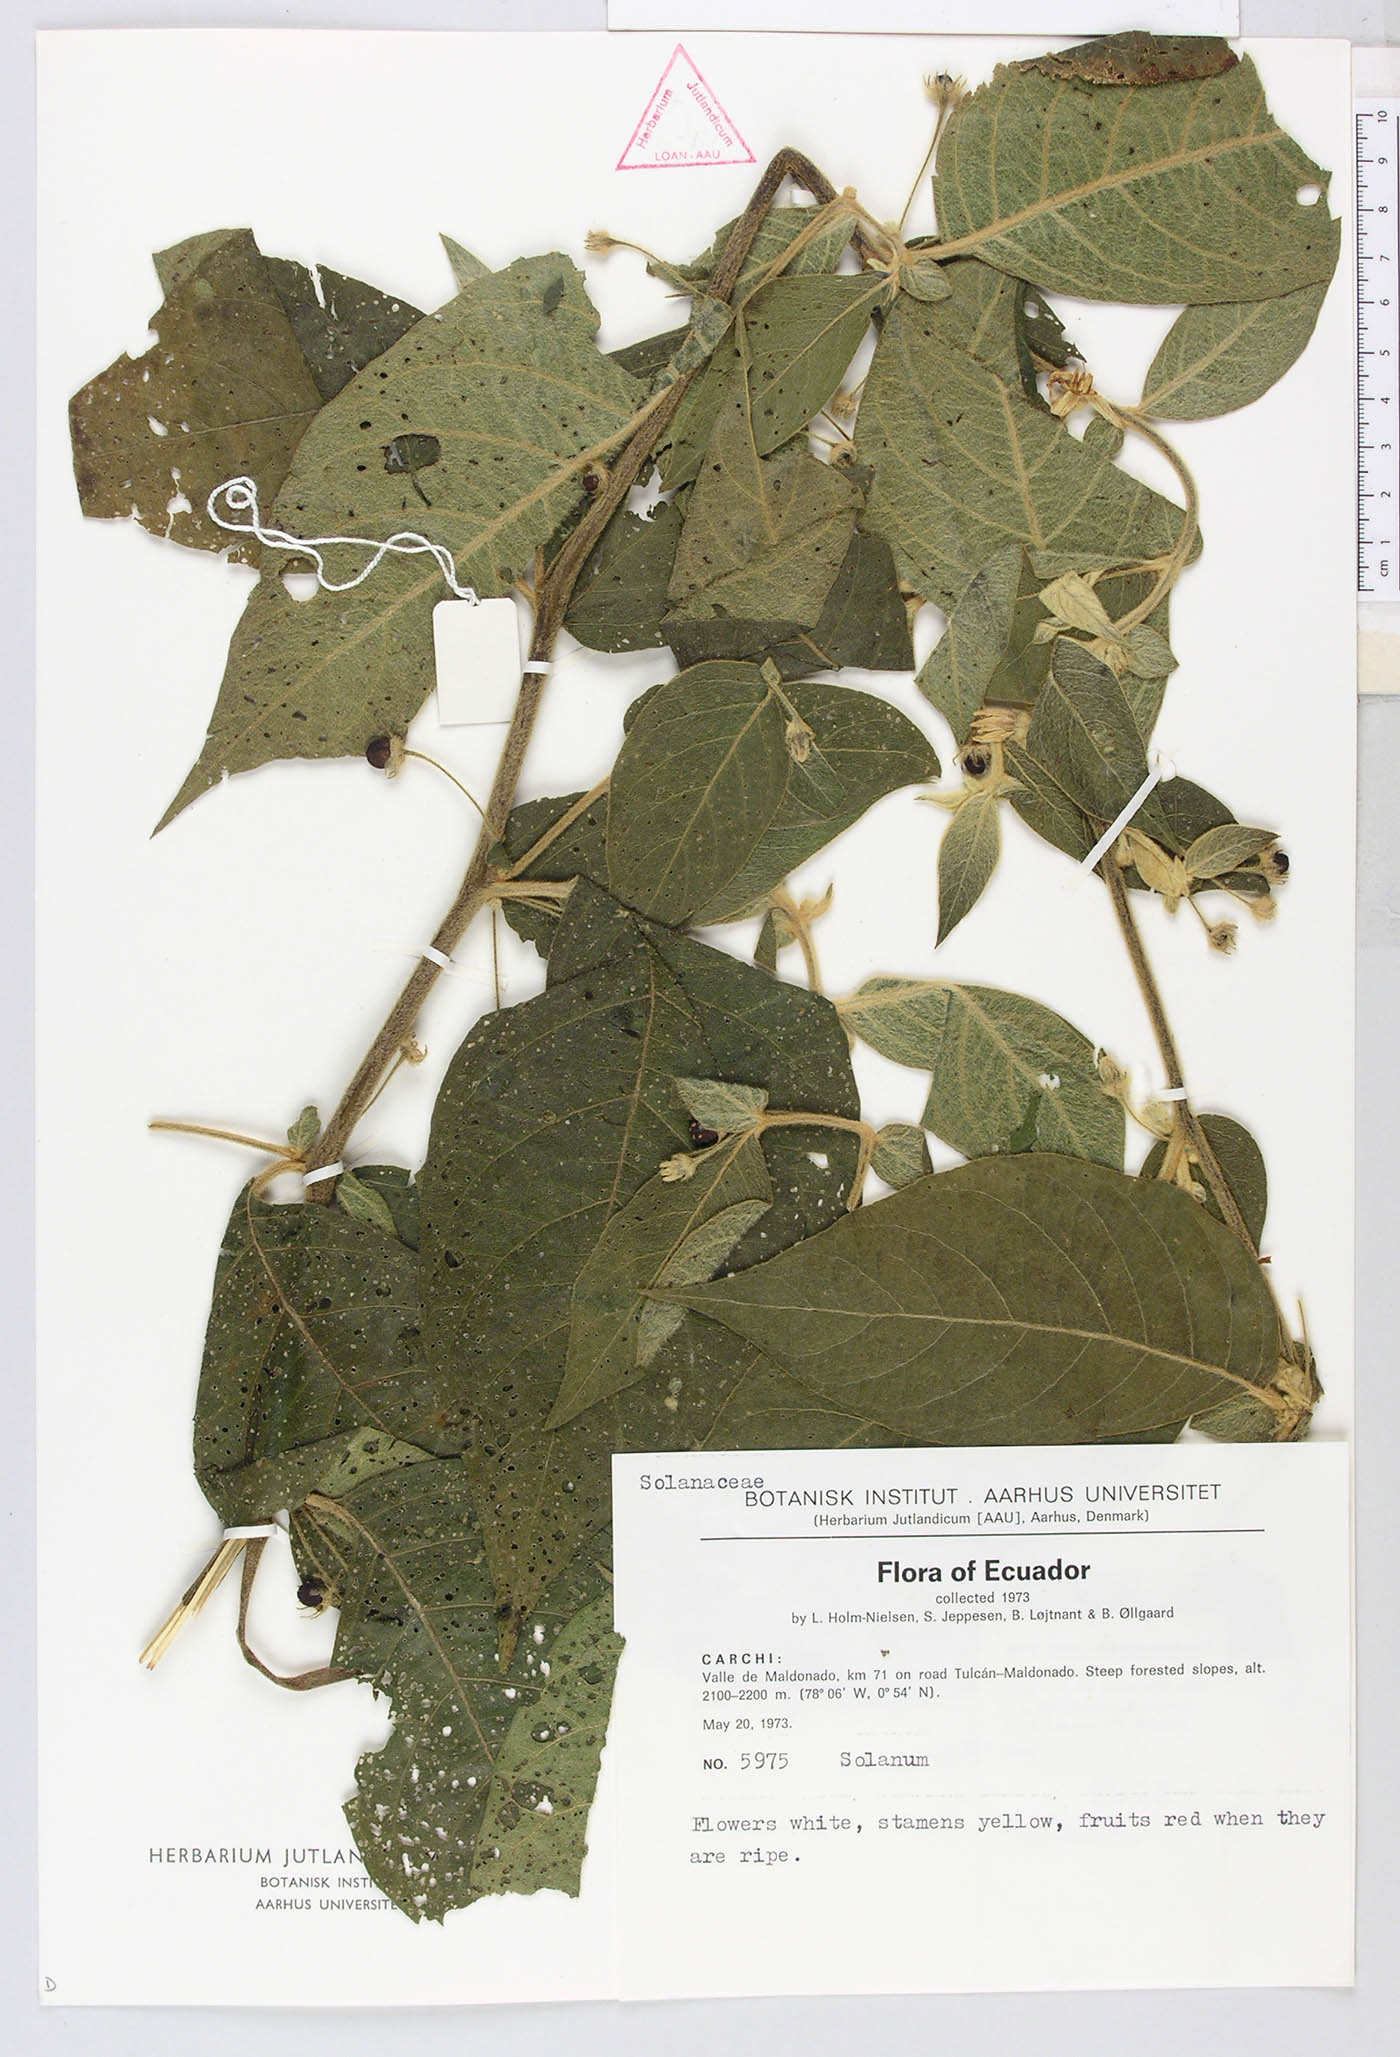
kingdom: Plantae
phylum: Tracheophyta
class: Magnoliopsida
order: Solanales
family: Solanaceae
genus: Lycianthes
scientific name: Lycianthes
